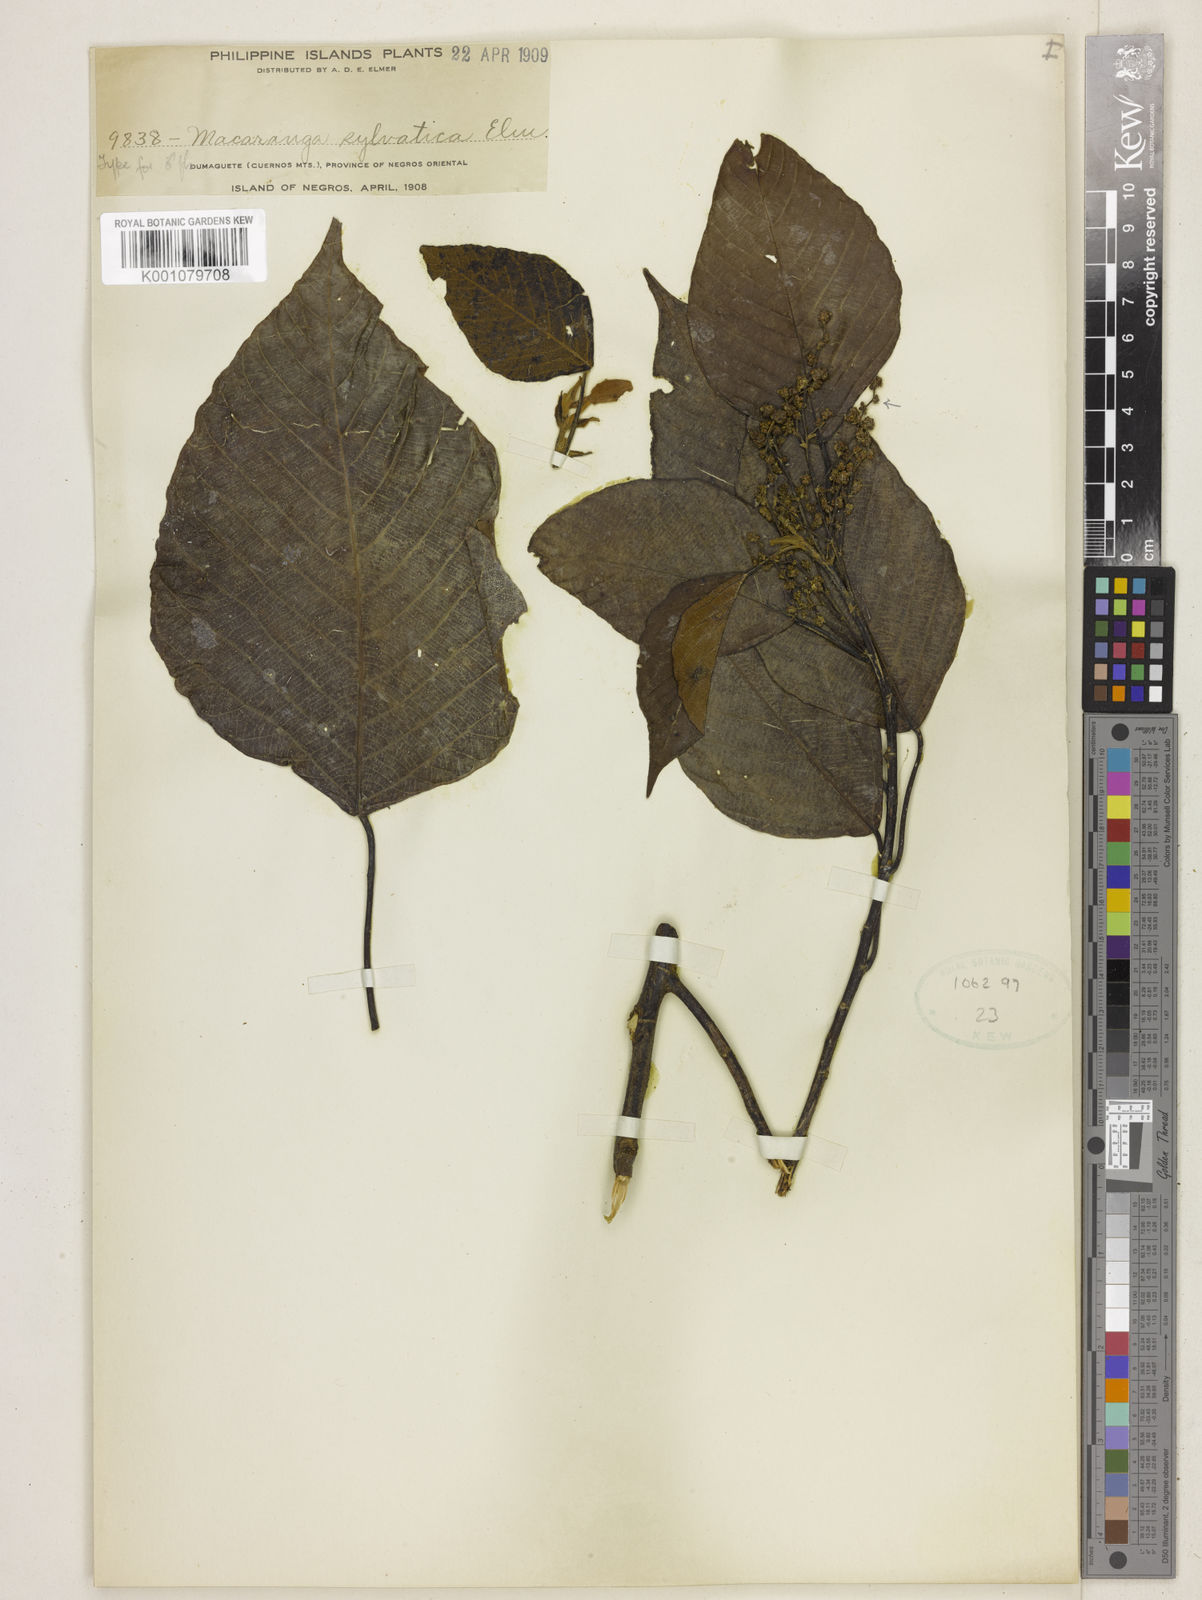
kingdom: Plantae
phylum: Tracheophyta
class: Magnoliopsida
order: Malpighiales
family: Euphorbiaceae
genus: Macaranga
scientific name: Macaranga sylvatica
